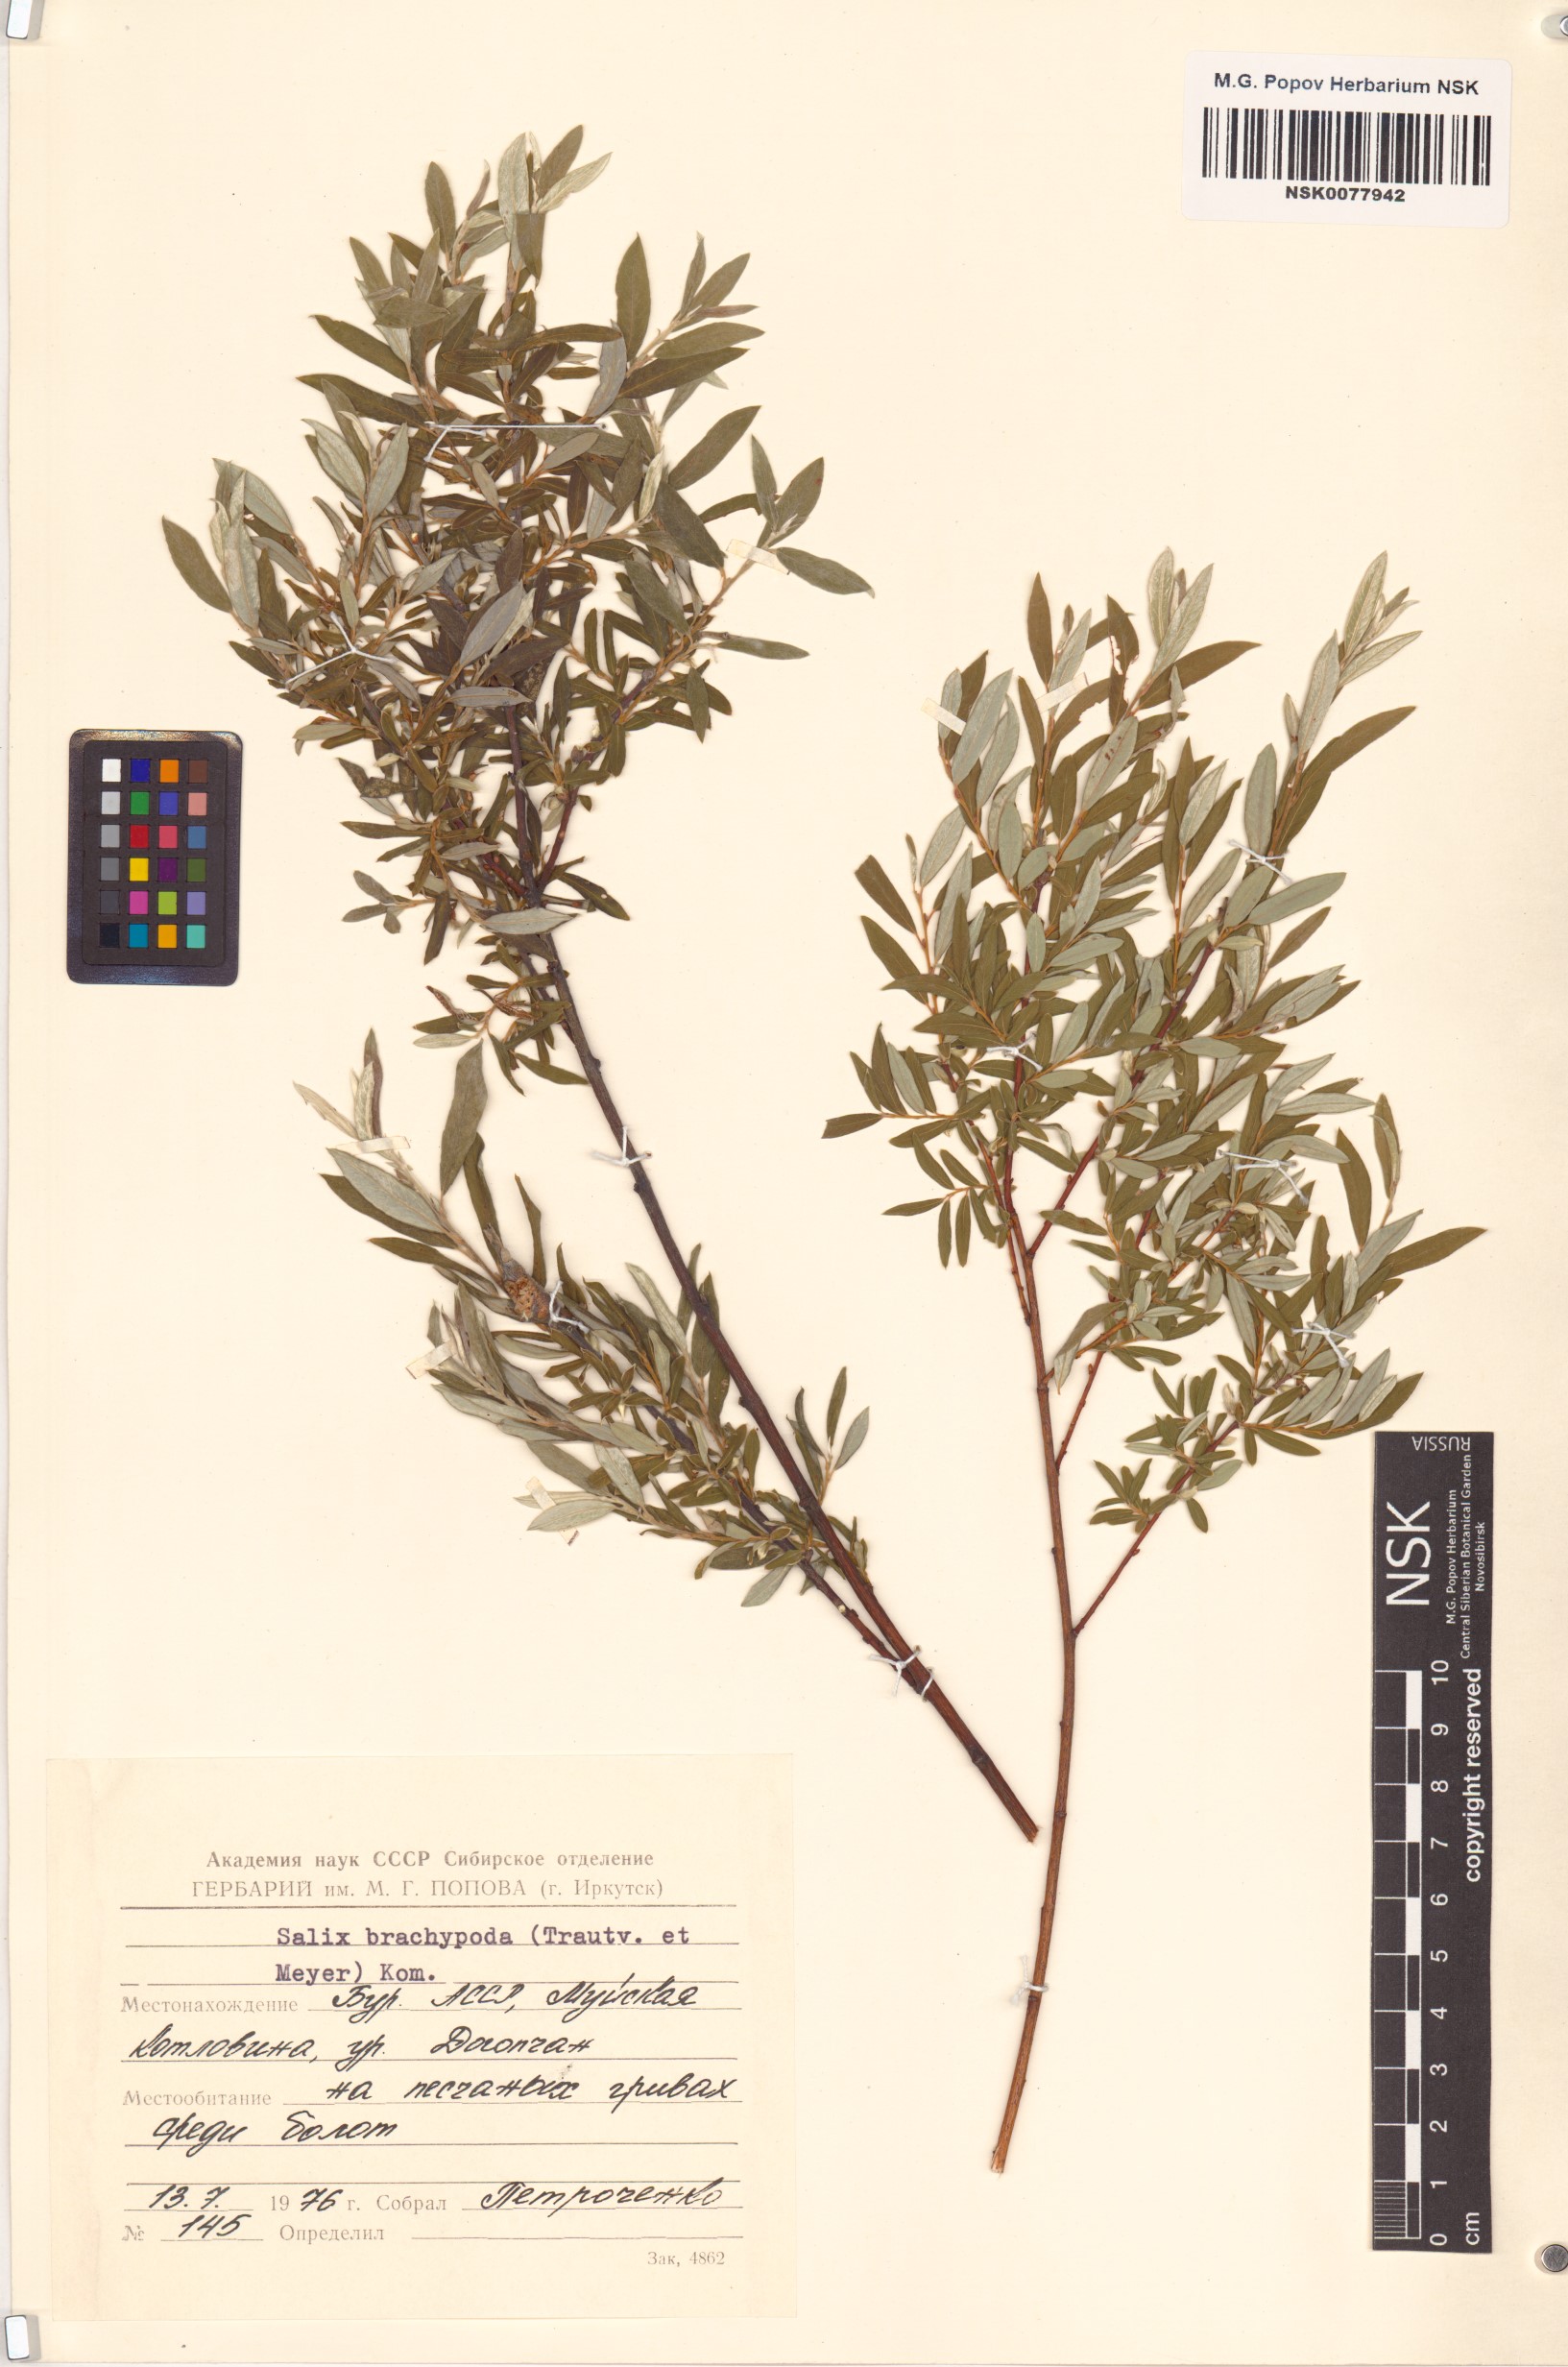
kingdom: Plantae
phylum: Tracheophyta
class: Magnoliopsida
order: Malpighiales
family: Salicaceae
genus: Salix
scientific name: Salix brachypoda
